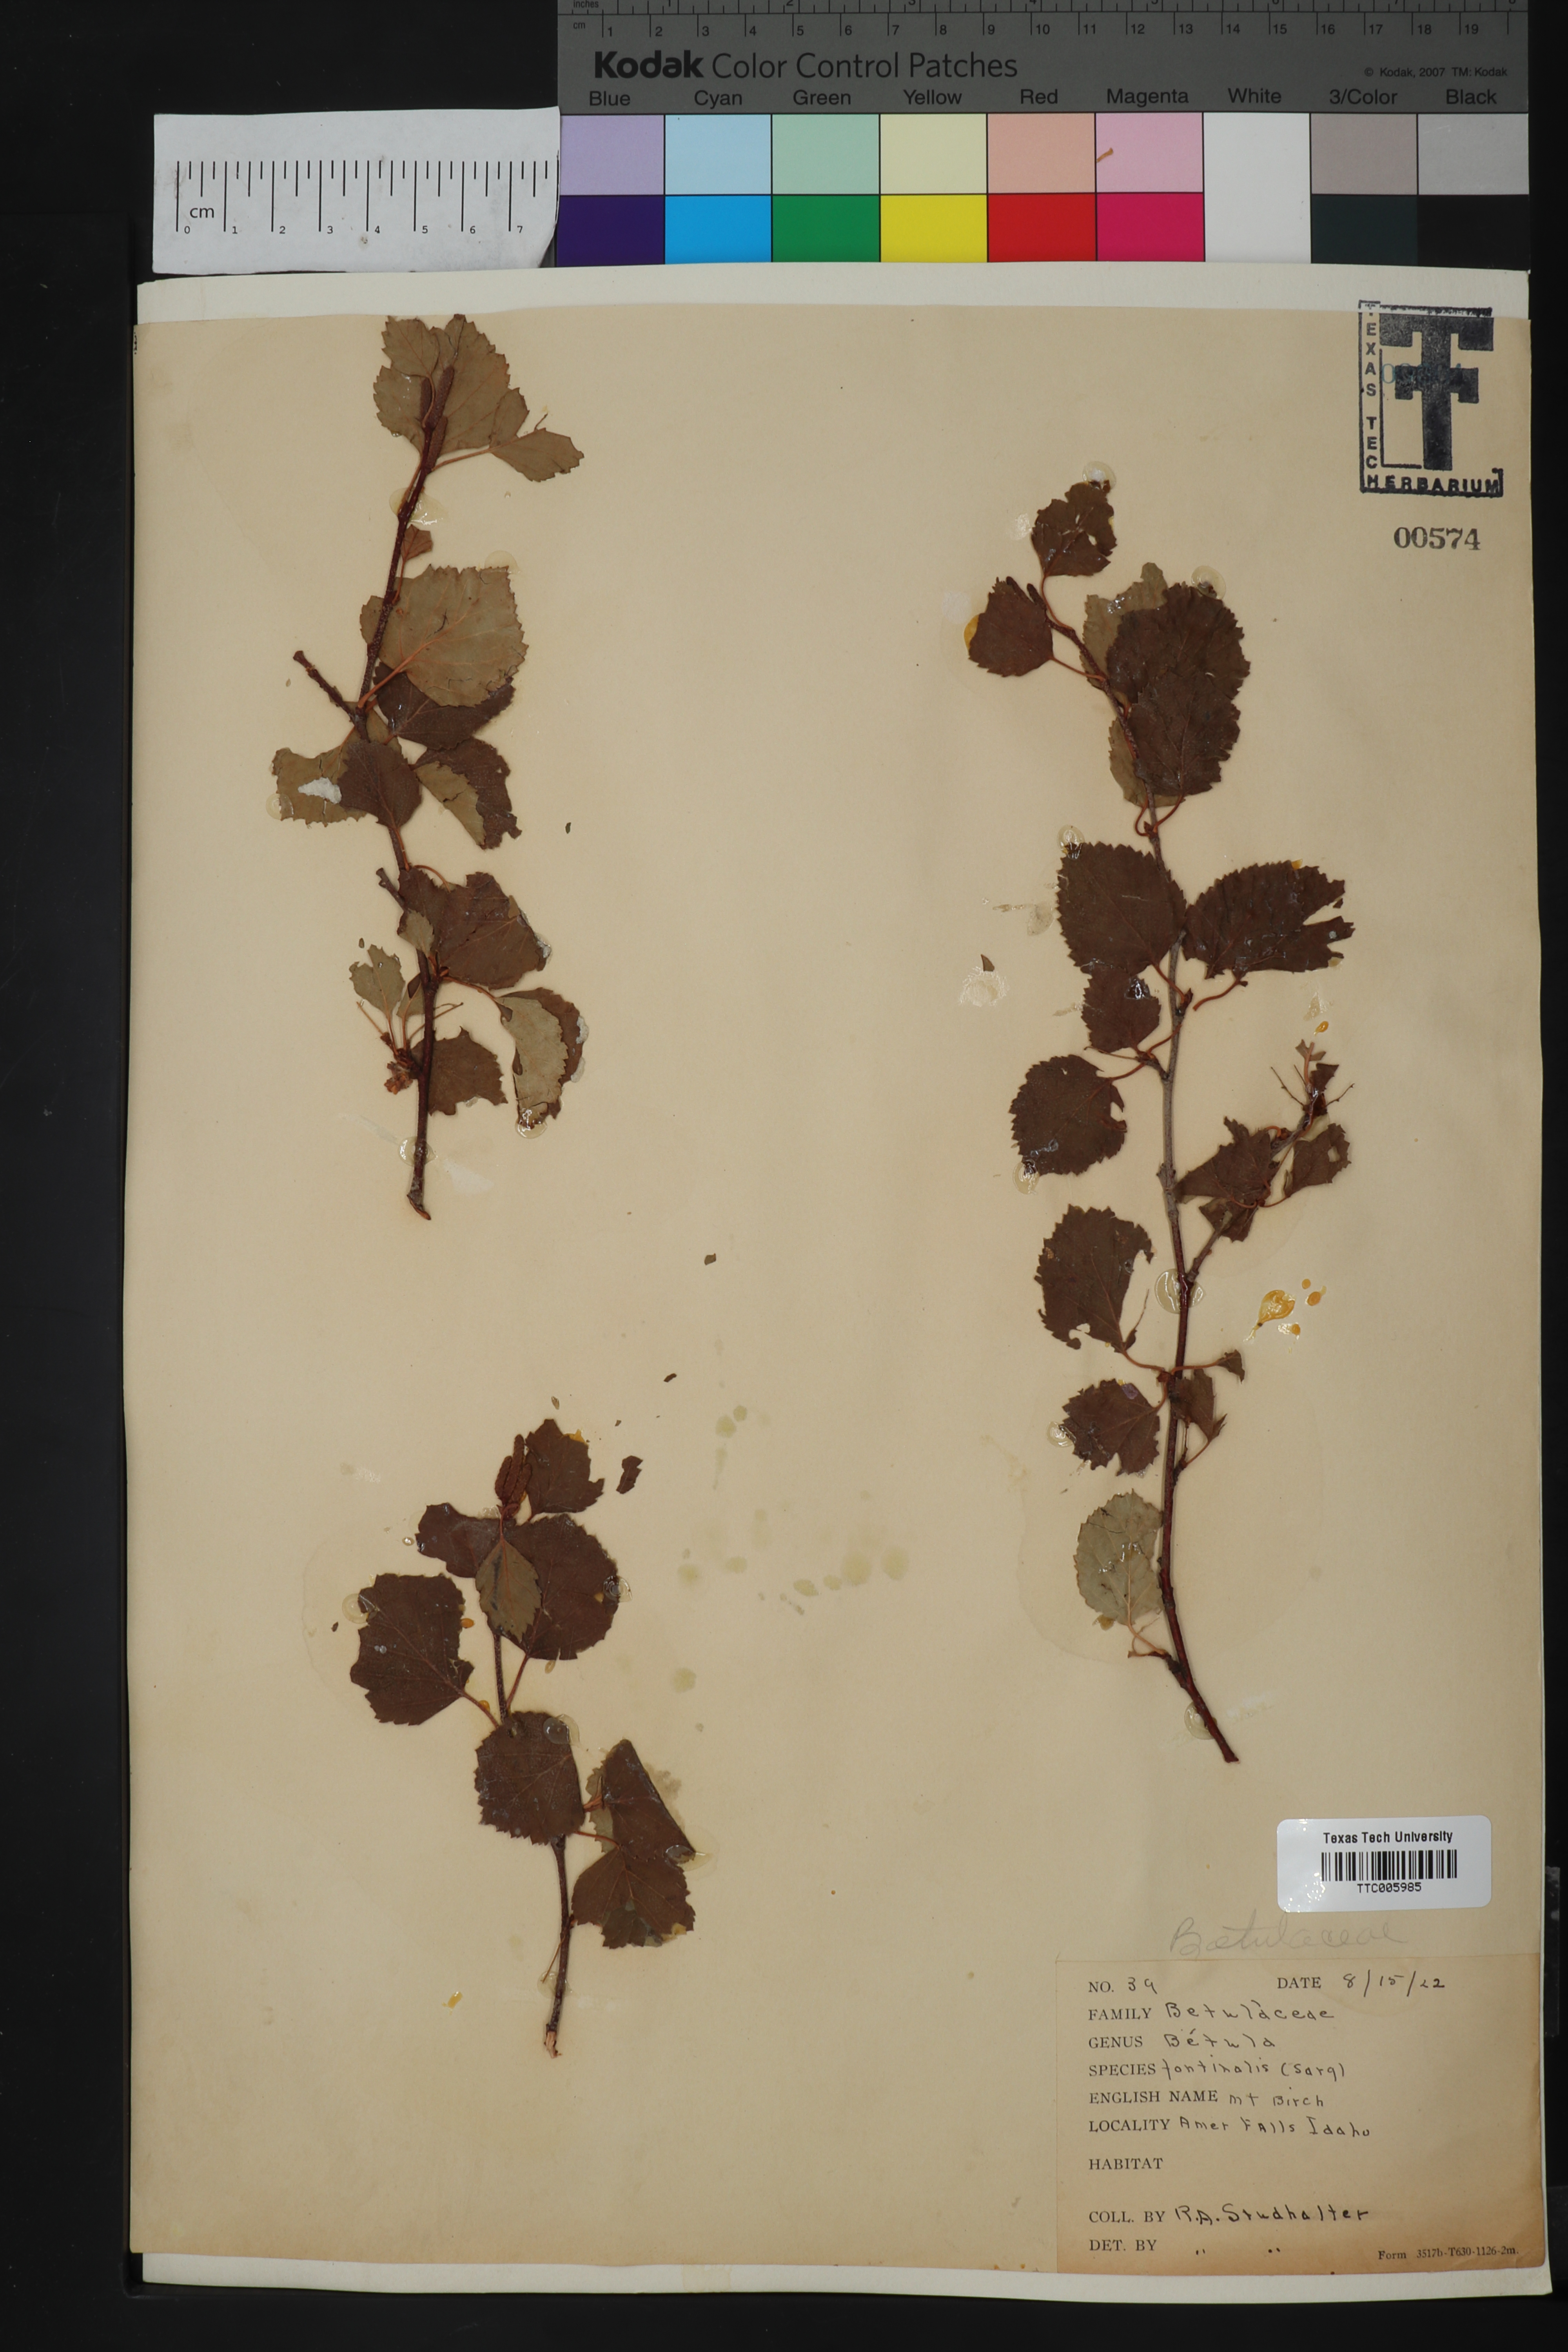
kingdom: Plantae
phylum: Tracheophyta
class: Magnoliopsida
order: Fagales
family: Betulaceae
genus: Betula
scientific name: Betula occidentalis
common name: River birch
